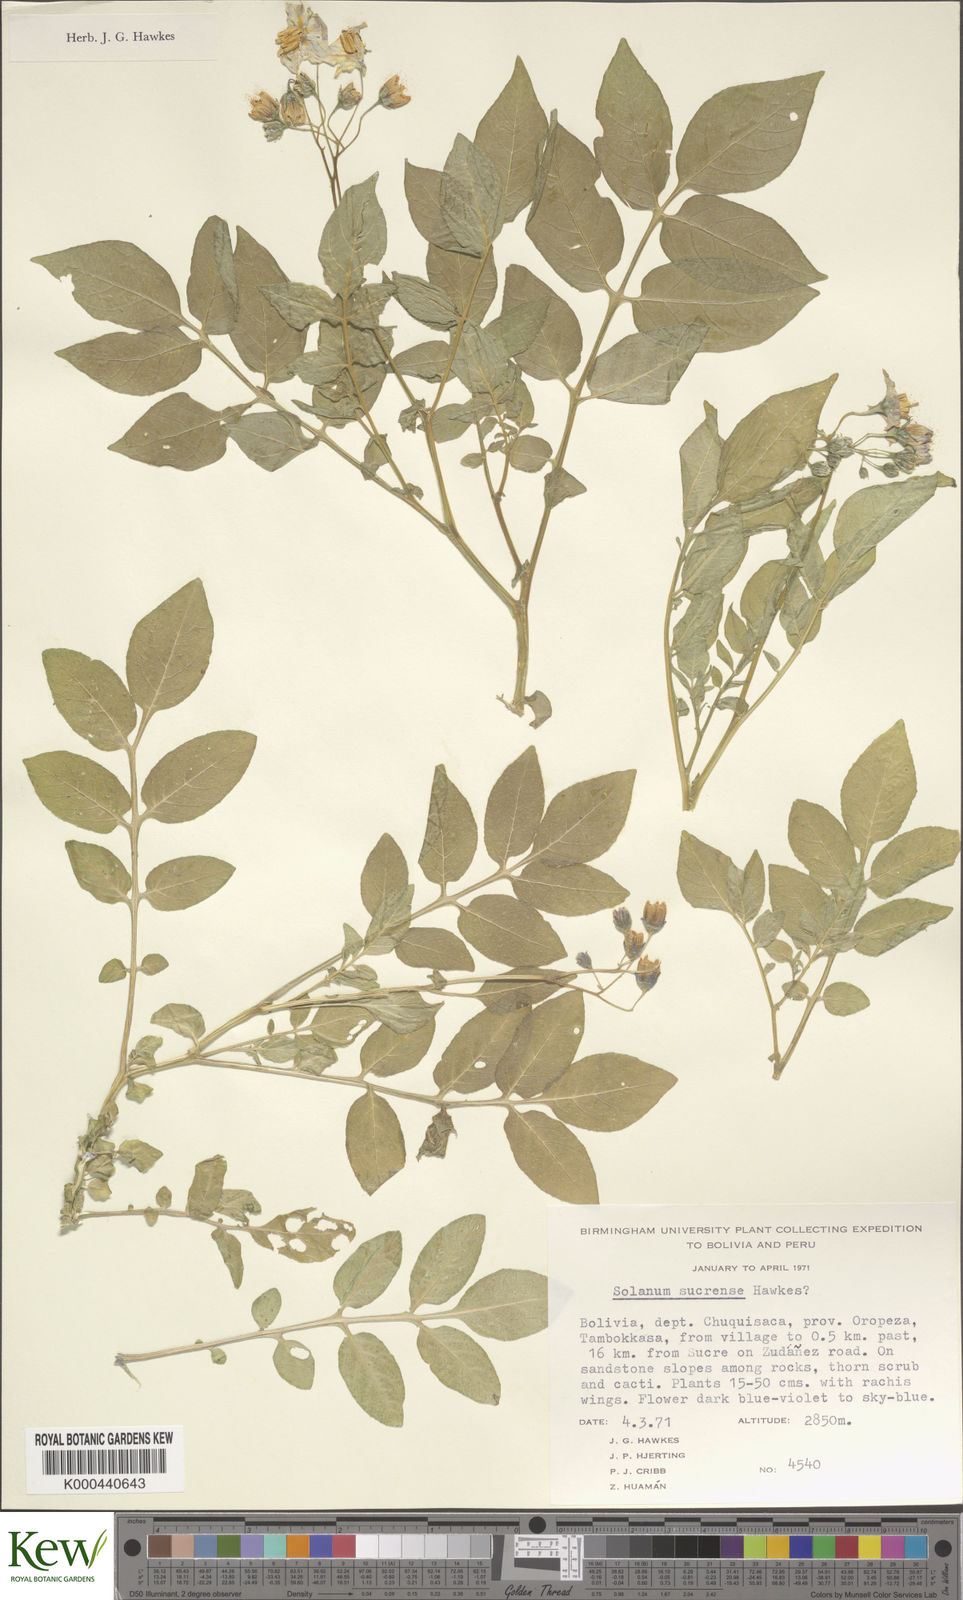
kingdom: Plantae
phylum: Tracheophyta
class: Magnoliopsida
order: Solanales
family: Solanaceae
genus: Solanum
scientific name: Solanum brevicaule
